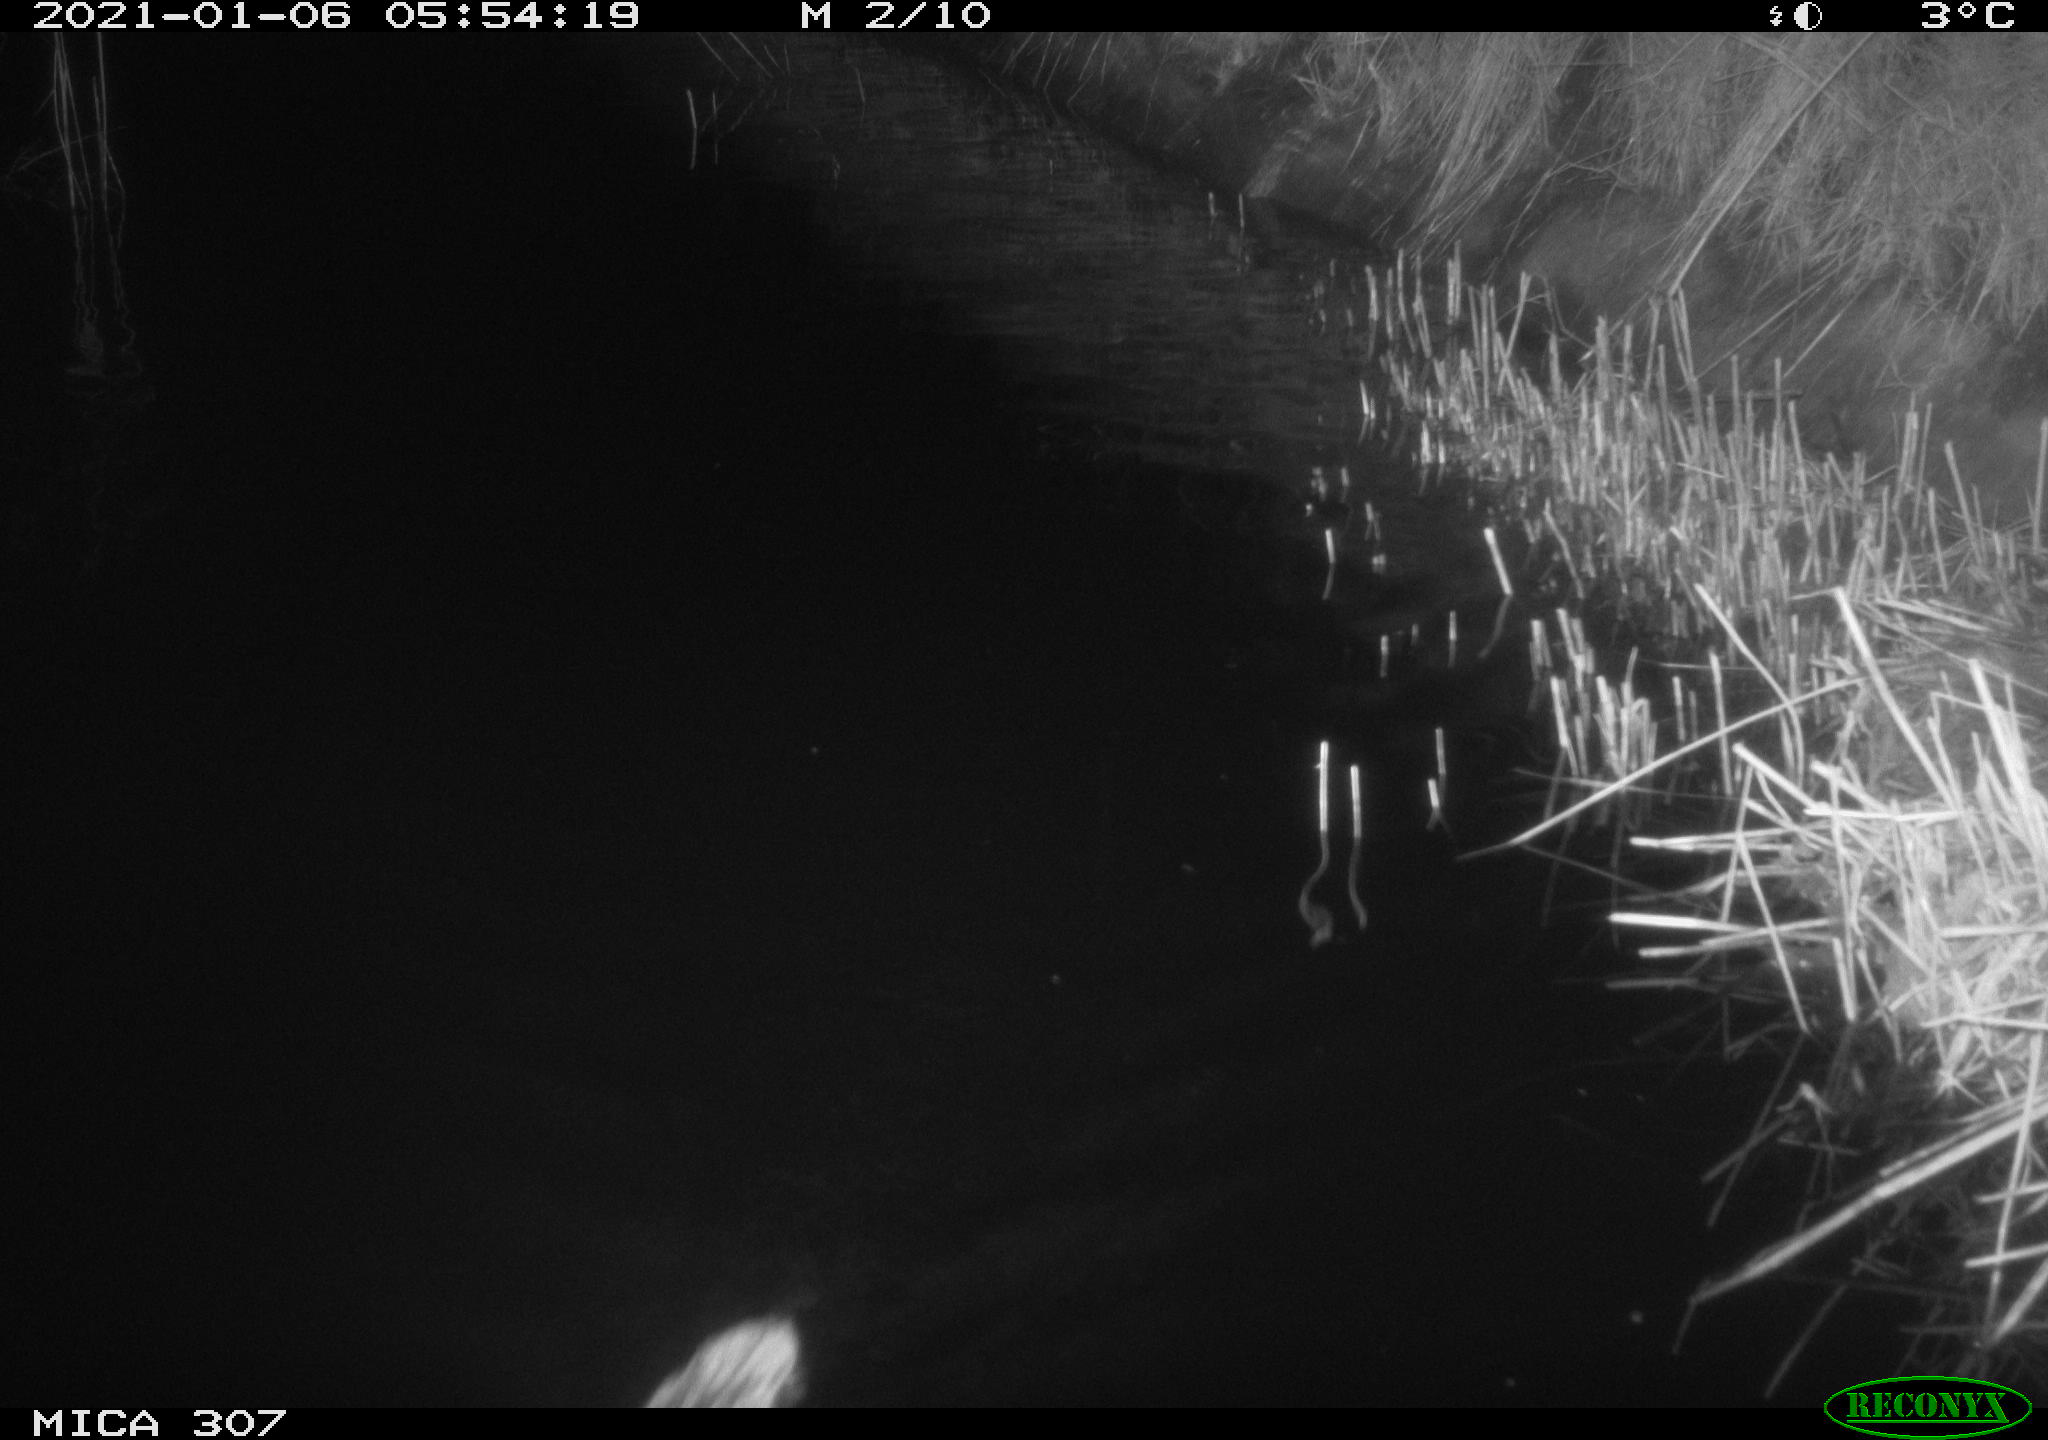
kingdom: Animalia
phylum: Chordata
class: Mammalia
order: Rodentia
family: Cricetidae
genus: Ondatra
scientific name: Ondatra zibethicus
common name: Muskrat
